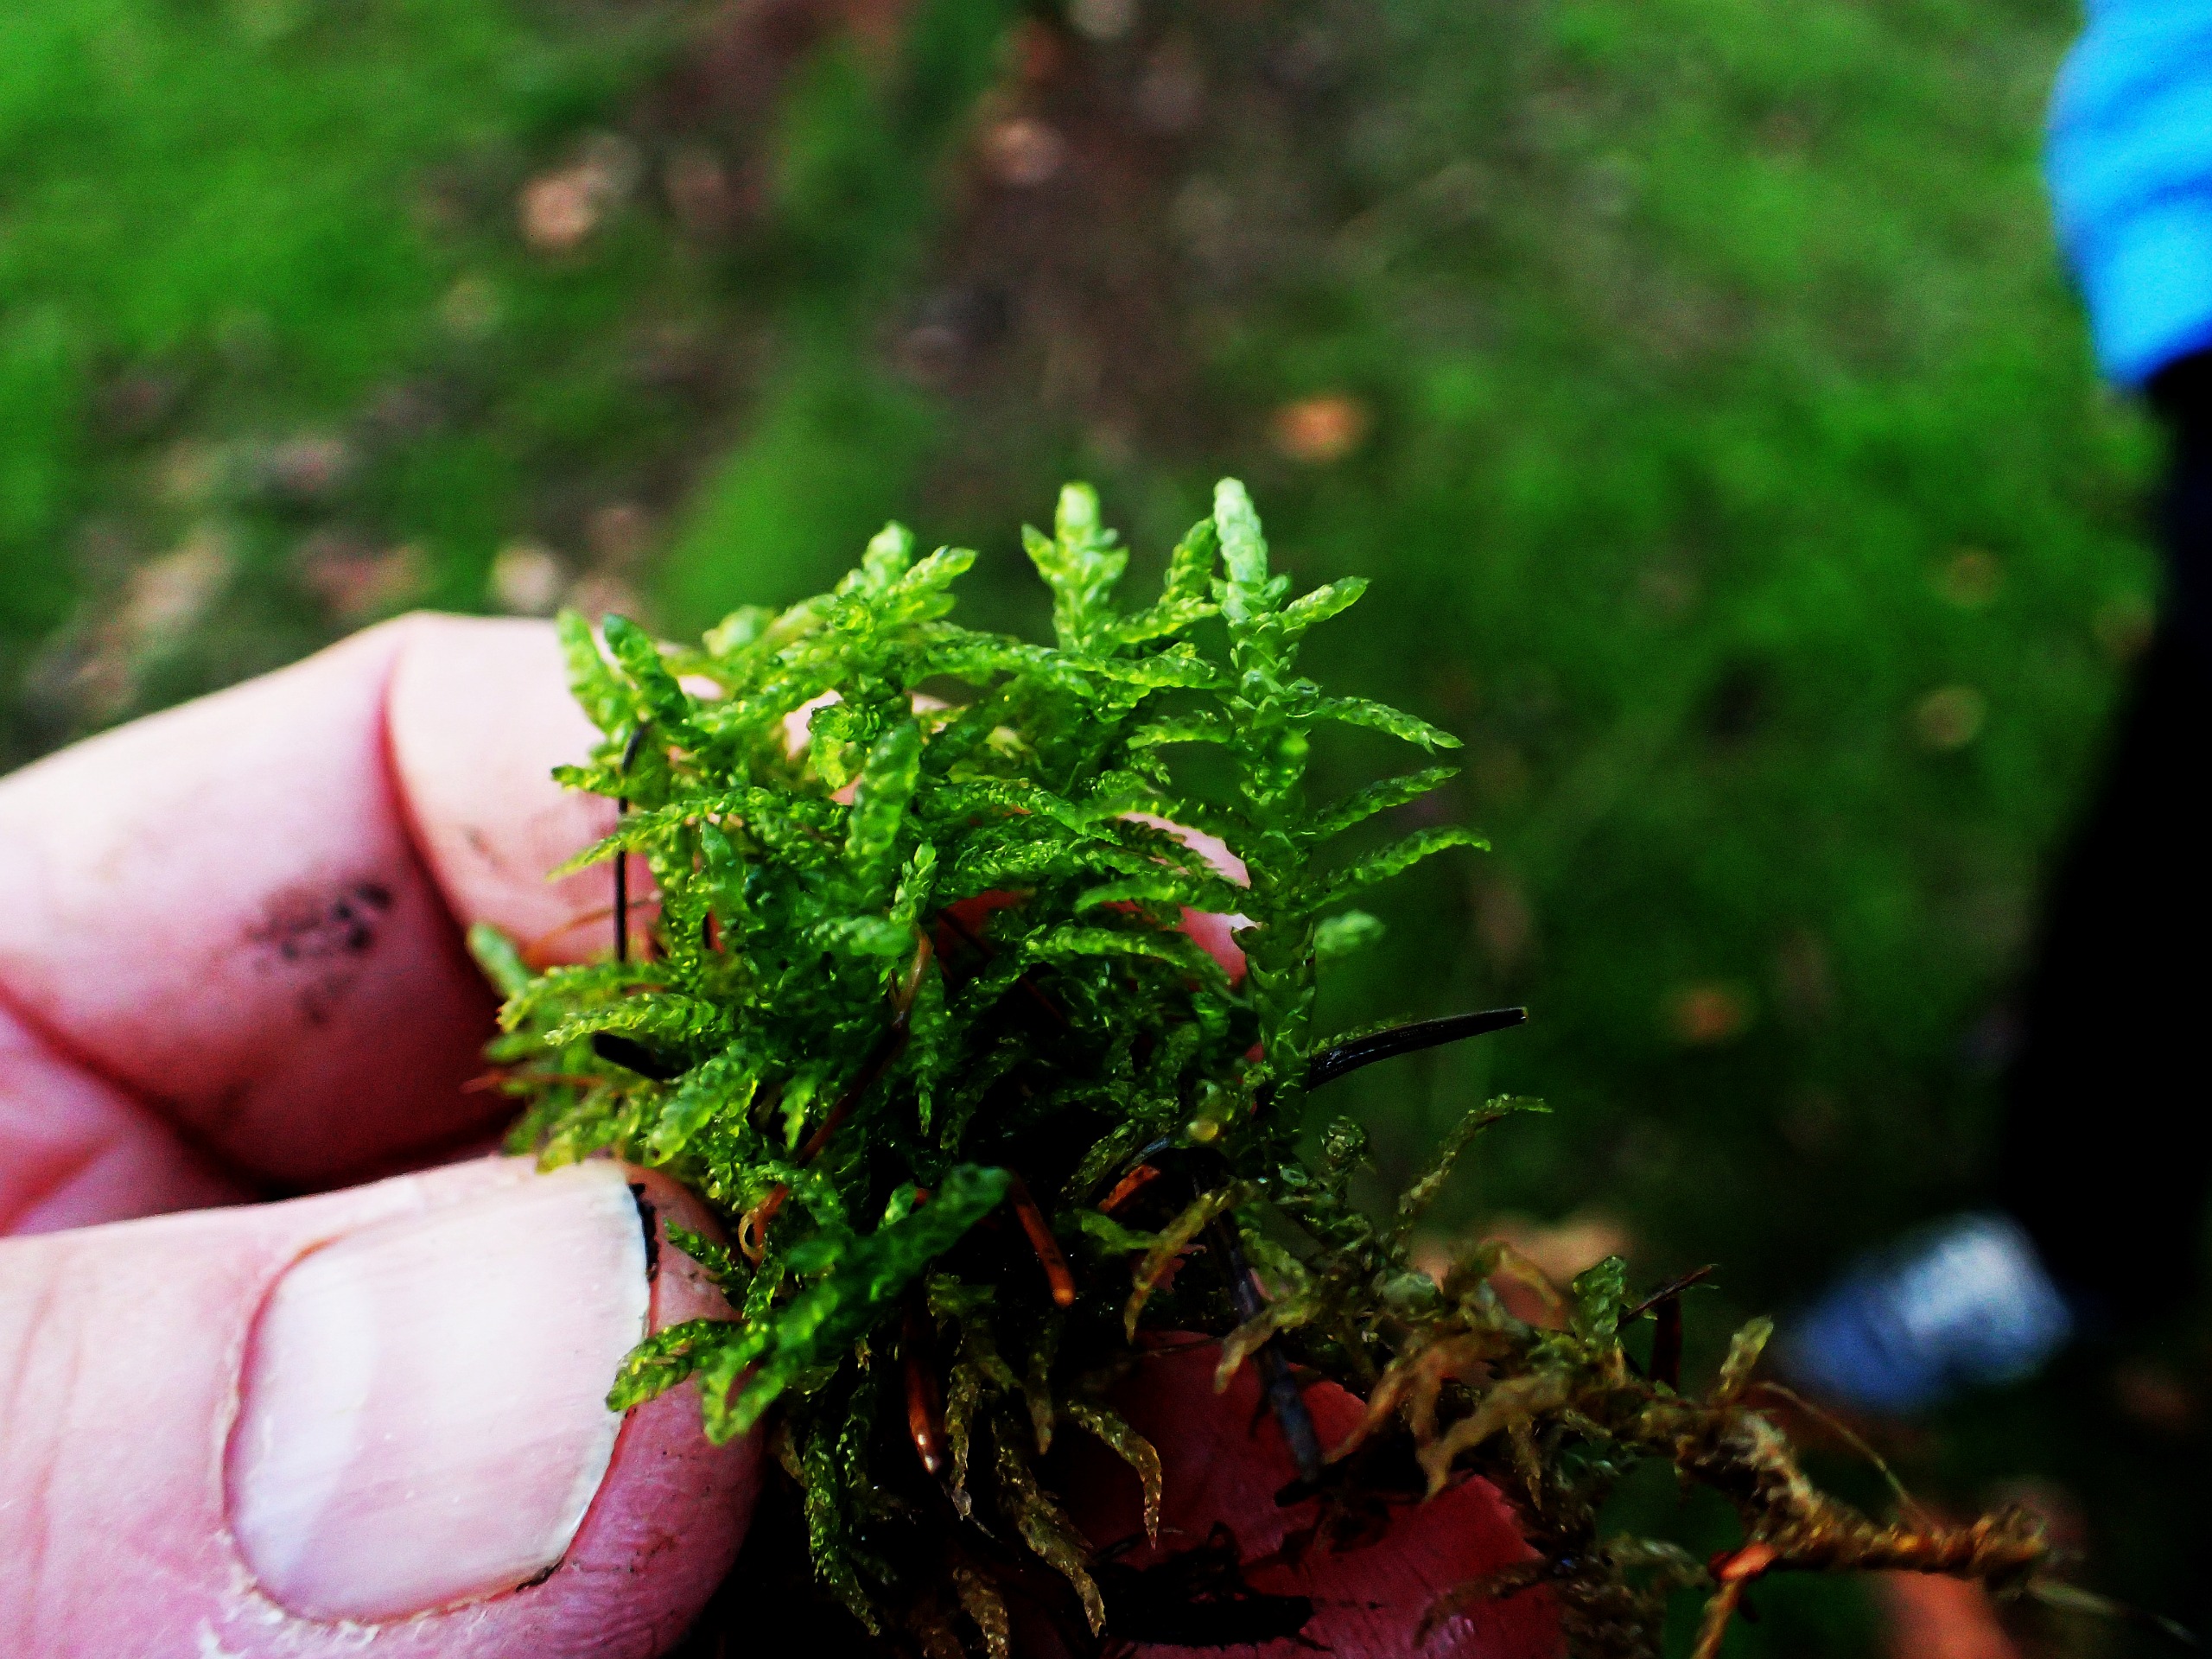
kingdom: Plantae
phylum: Bryophyta
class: Bryopsida
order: Hypnales
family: Brachytheciaceae
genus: Pseudoscleropodium
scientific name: Pseudoscleropodium purum
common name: Hulbladet fedtmos
